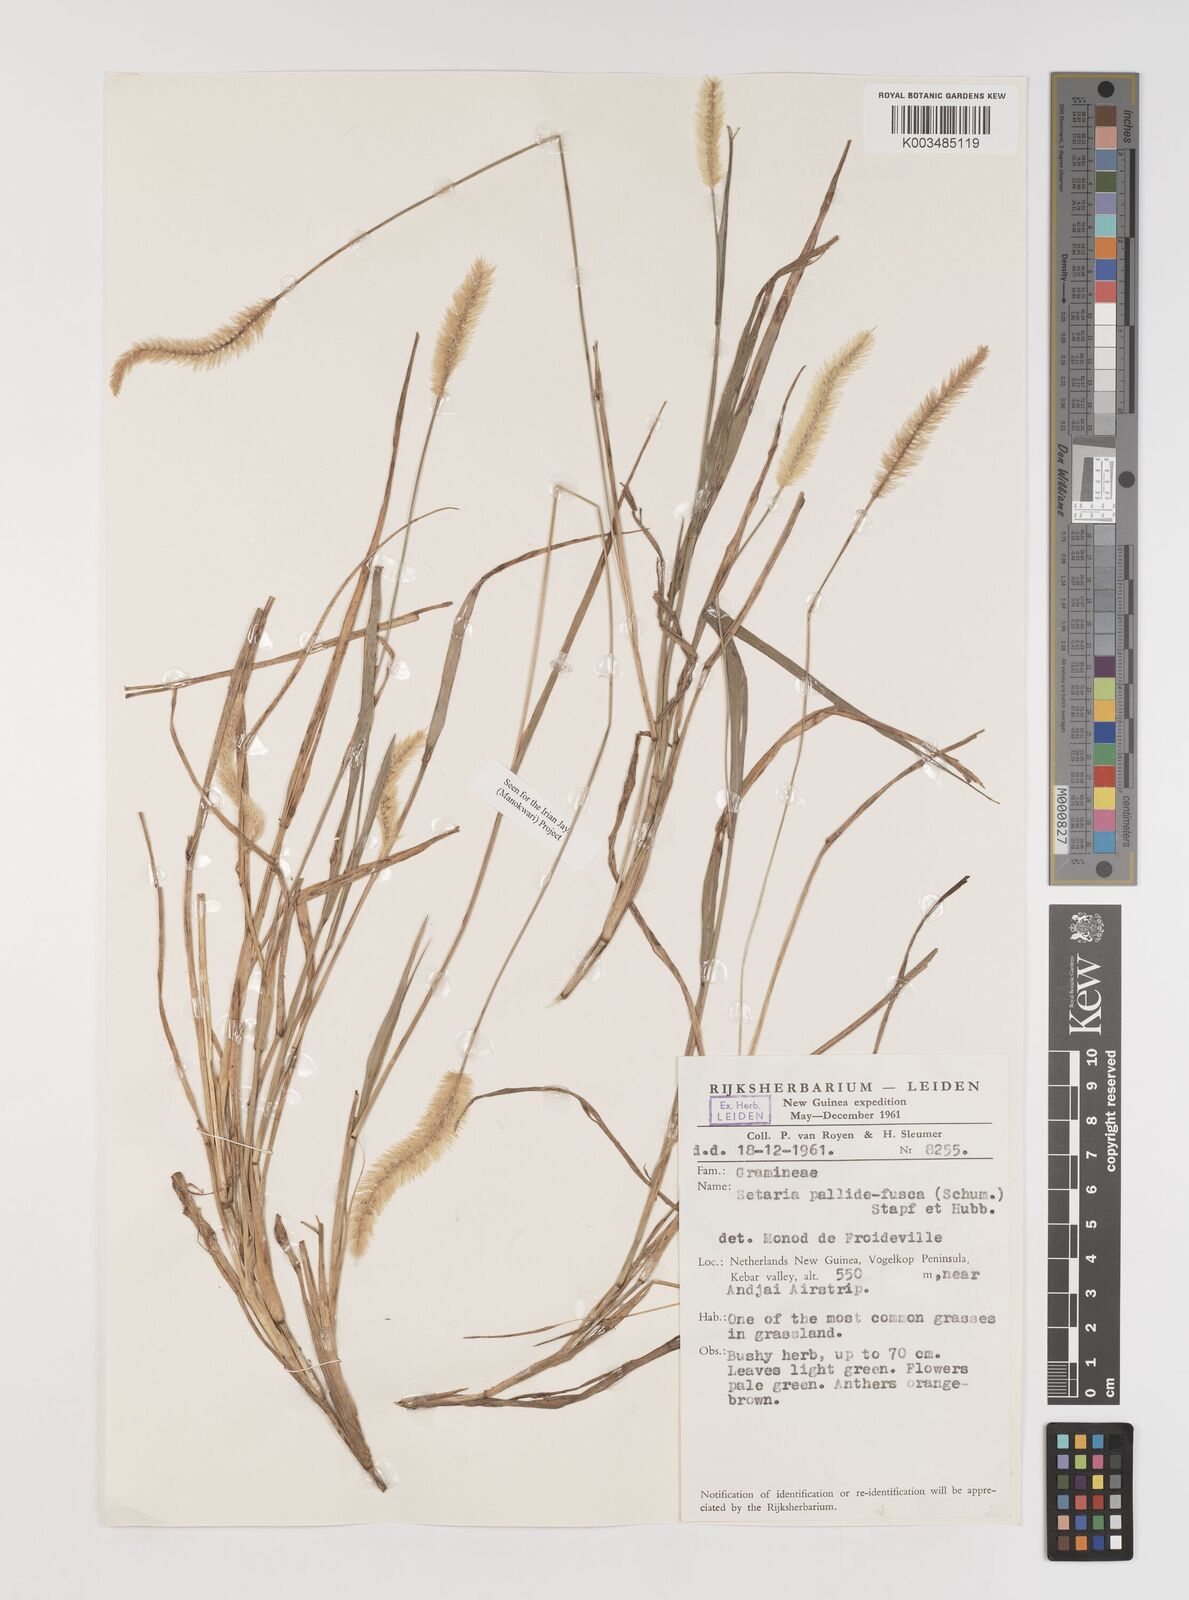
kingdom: Plantae
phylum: Tracheophyta
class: Liliopsida
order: Poales
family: Poaceae
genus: Setaria
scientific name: Setaria pumila
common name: Yellow bristle-grass
